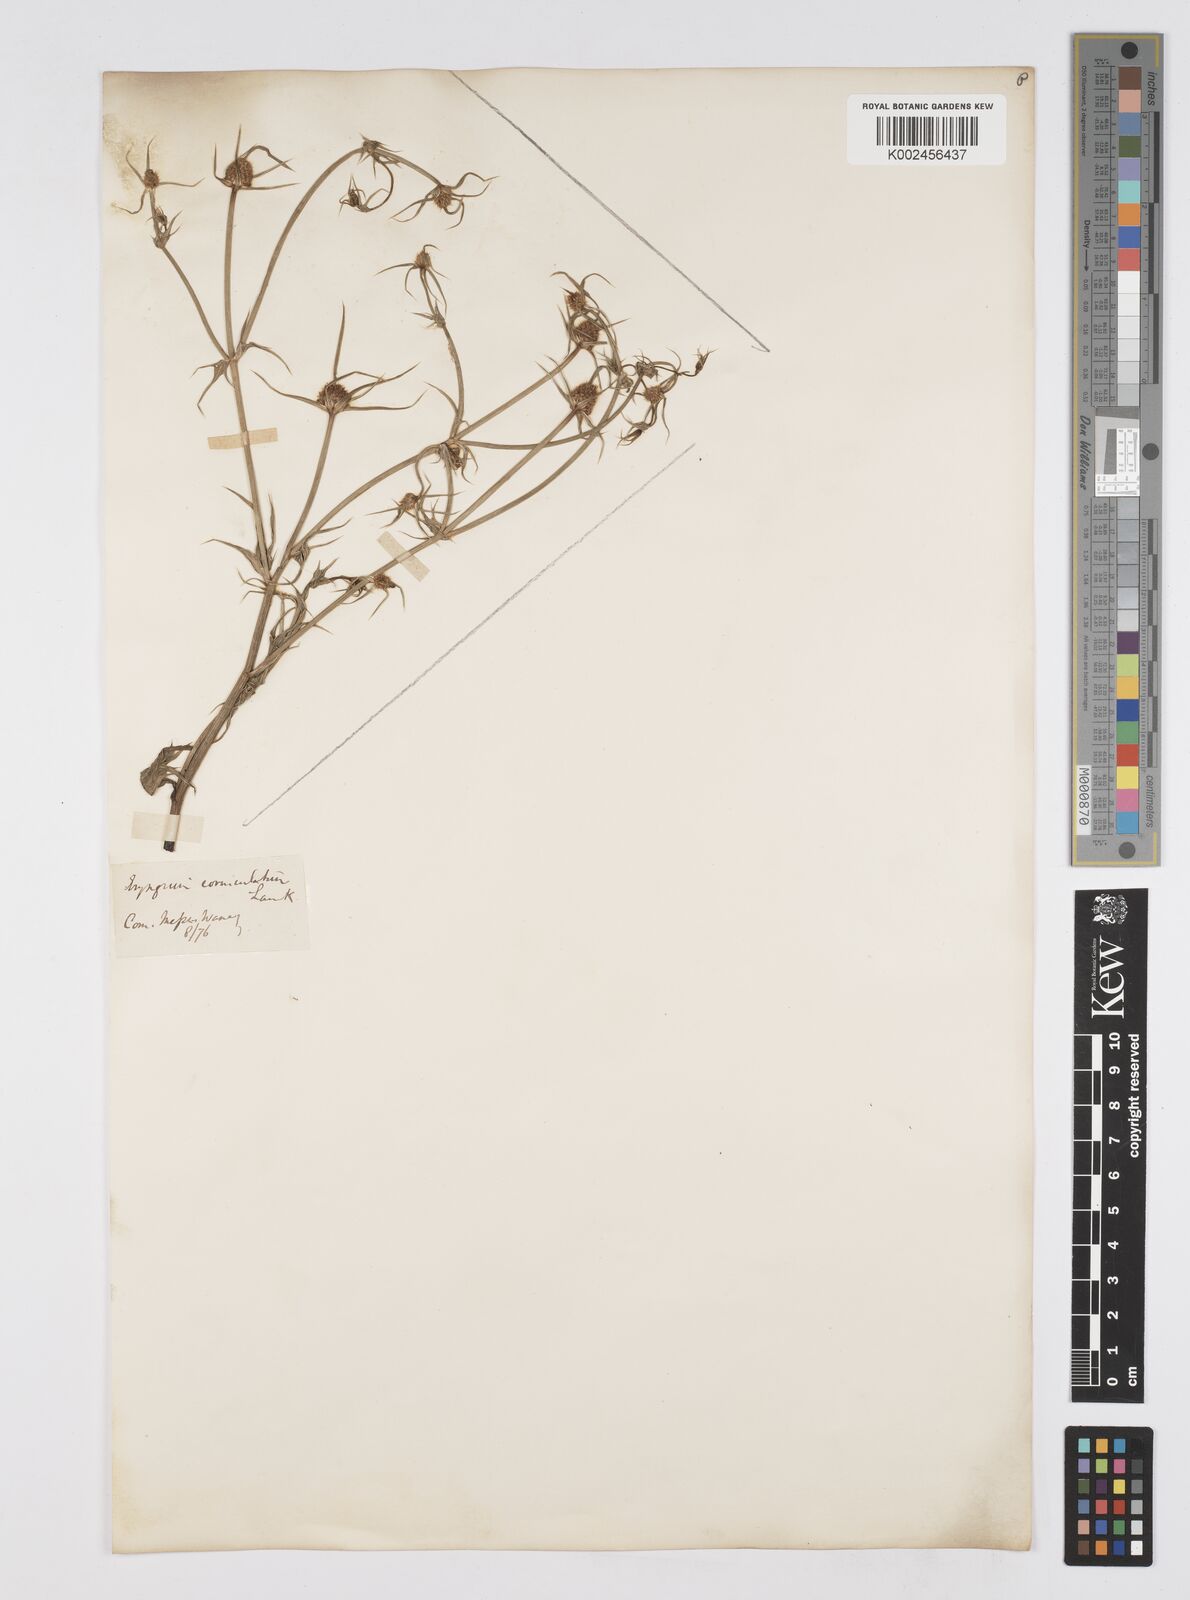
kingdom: Plantae
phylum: Tracheophyta
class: Magnoliopsida
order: Apiales
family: Apiaceae
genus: Eryngium
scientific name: Eryngium corniculatum
